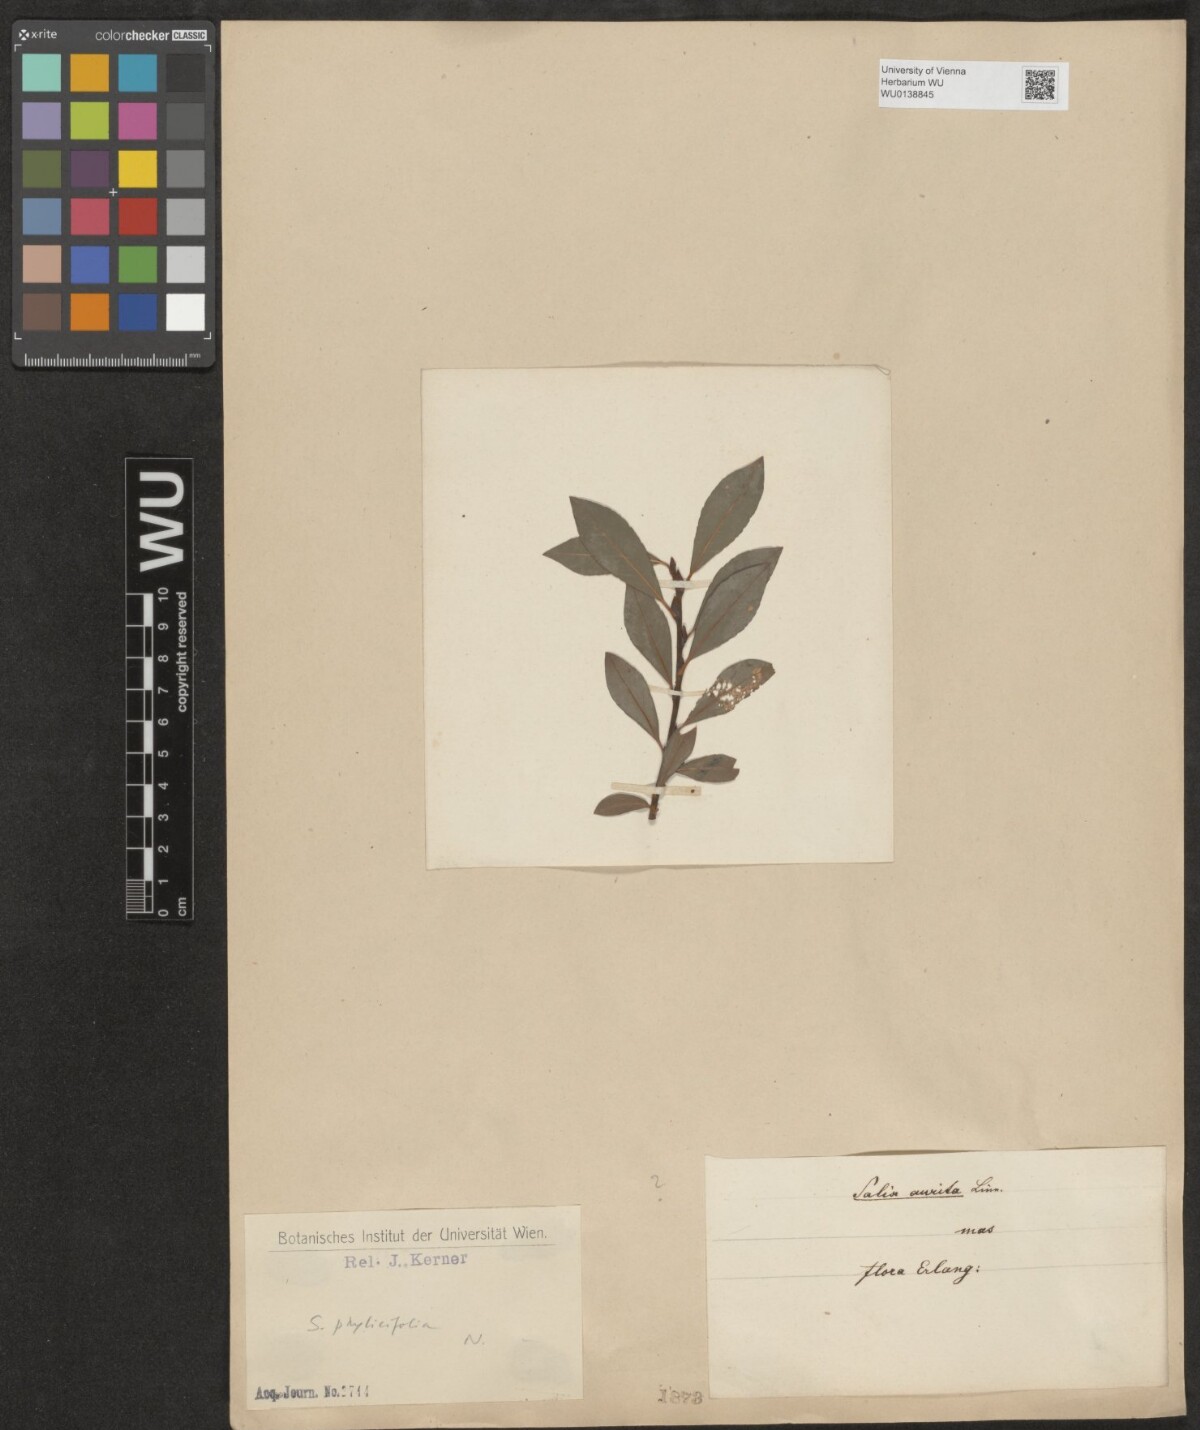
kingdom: Plantae
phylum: Tracheophyta
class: Magnoliopsida
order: Malpighiales
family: Salicaceae
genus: Salix
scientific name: Salix phylicifolia
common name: Tea-leaved willow
